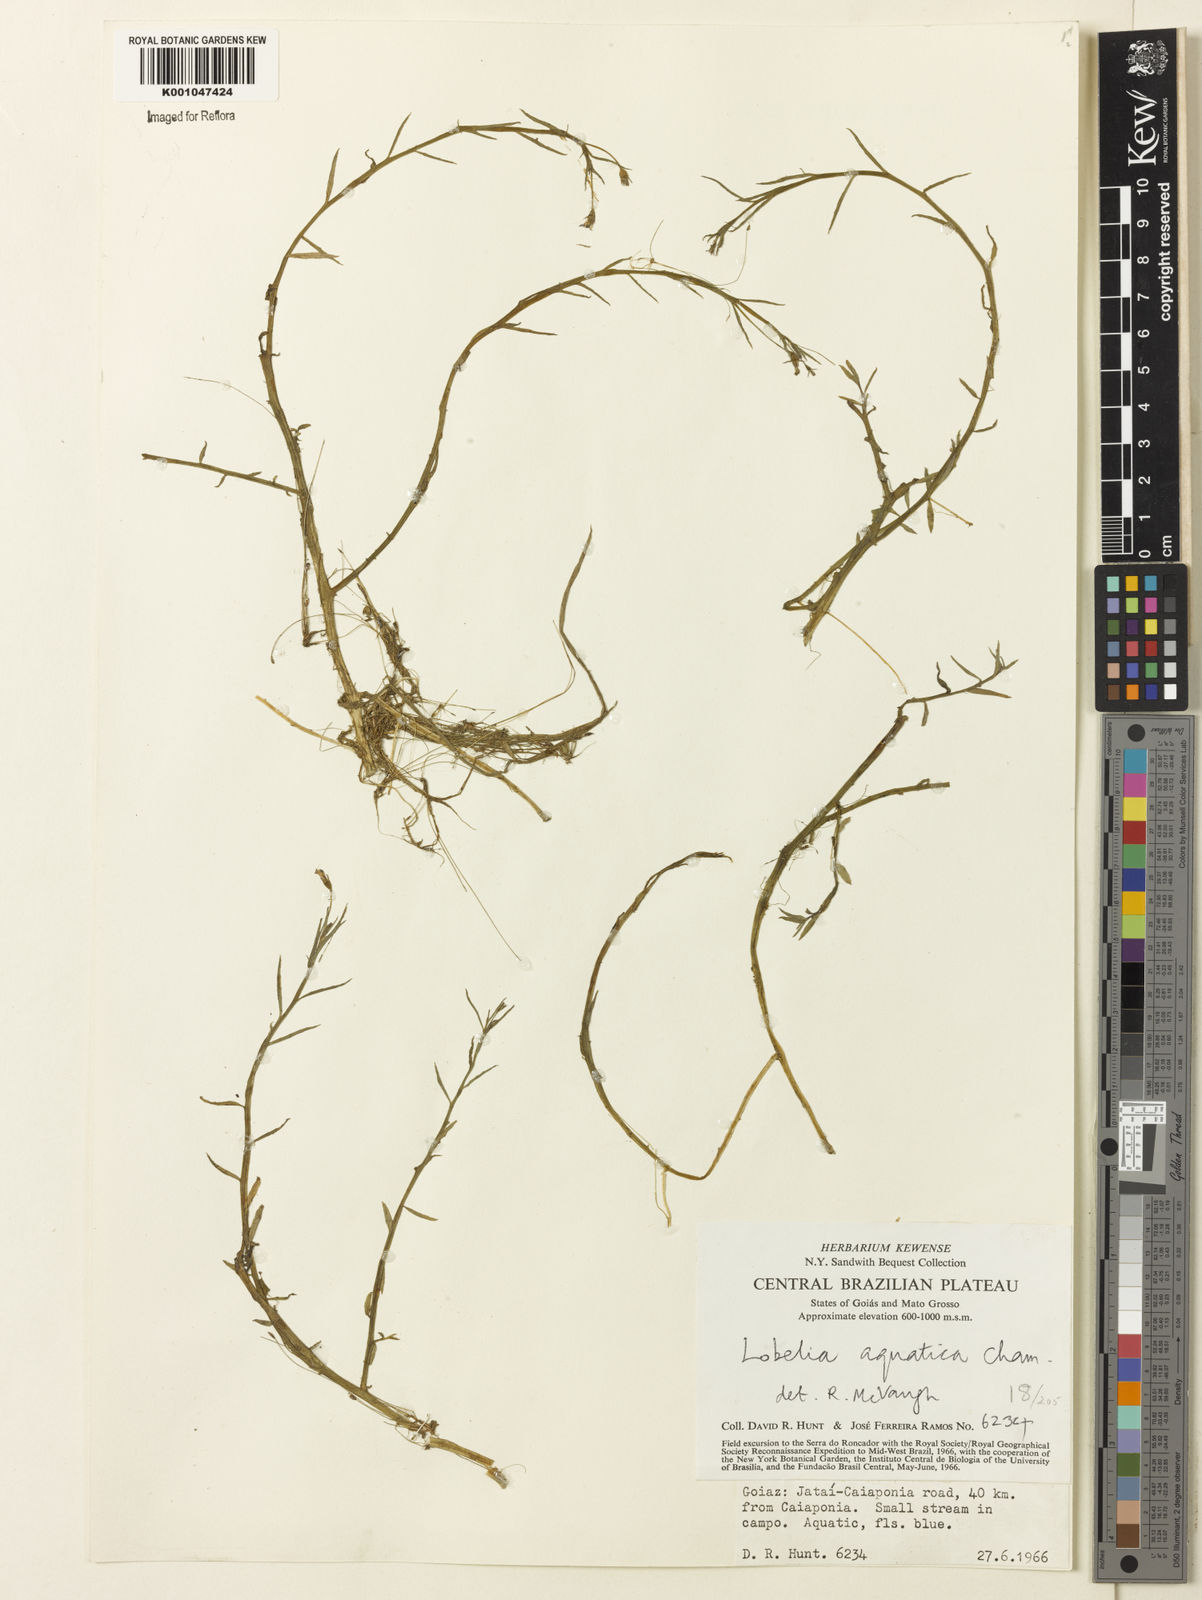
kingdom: Plantae
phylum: Tracheophyta
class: Magnoliopsida
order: Asterales
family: Campanulaceae
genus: Lobelia
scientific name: Lobelia aquatica
